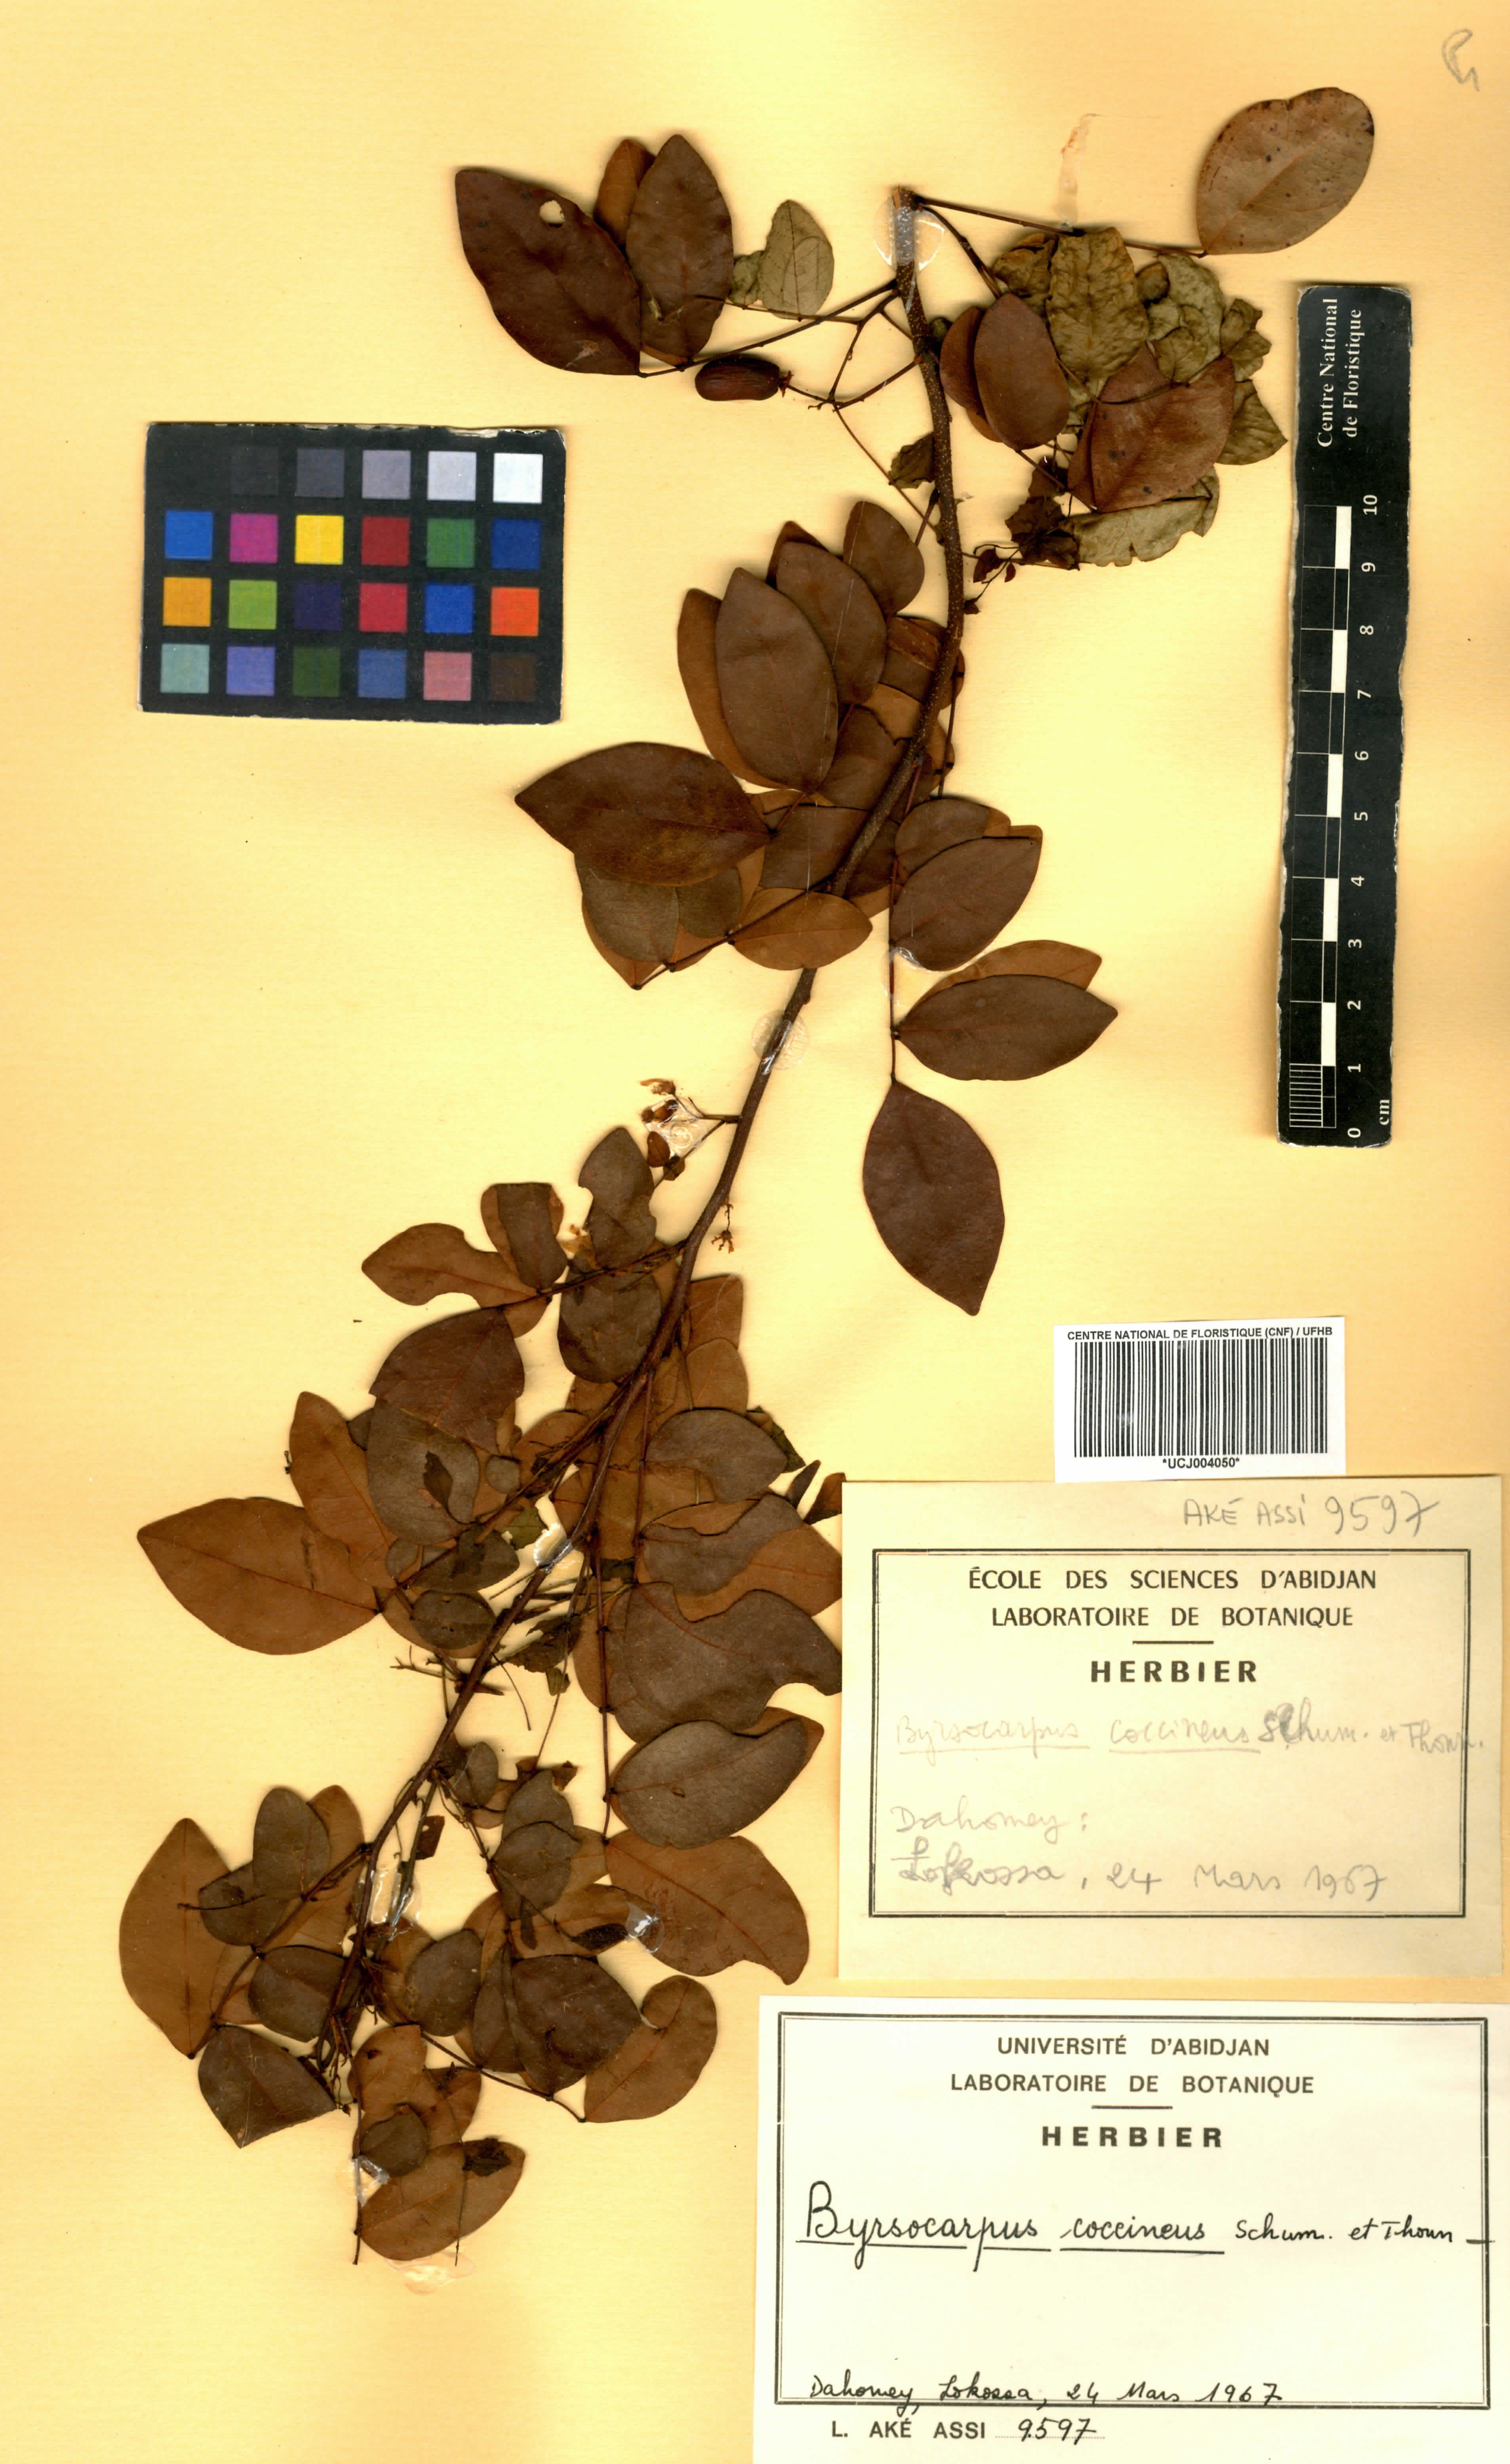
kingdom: Plantae
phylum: Tracheophyta
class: Magnoliopsida
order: Oxalidales
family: Connaraceae
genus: Rourea
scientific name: Rourea coccinea
